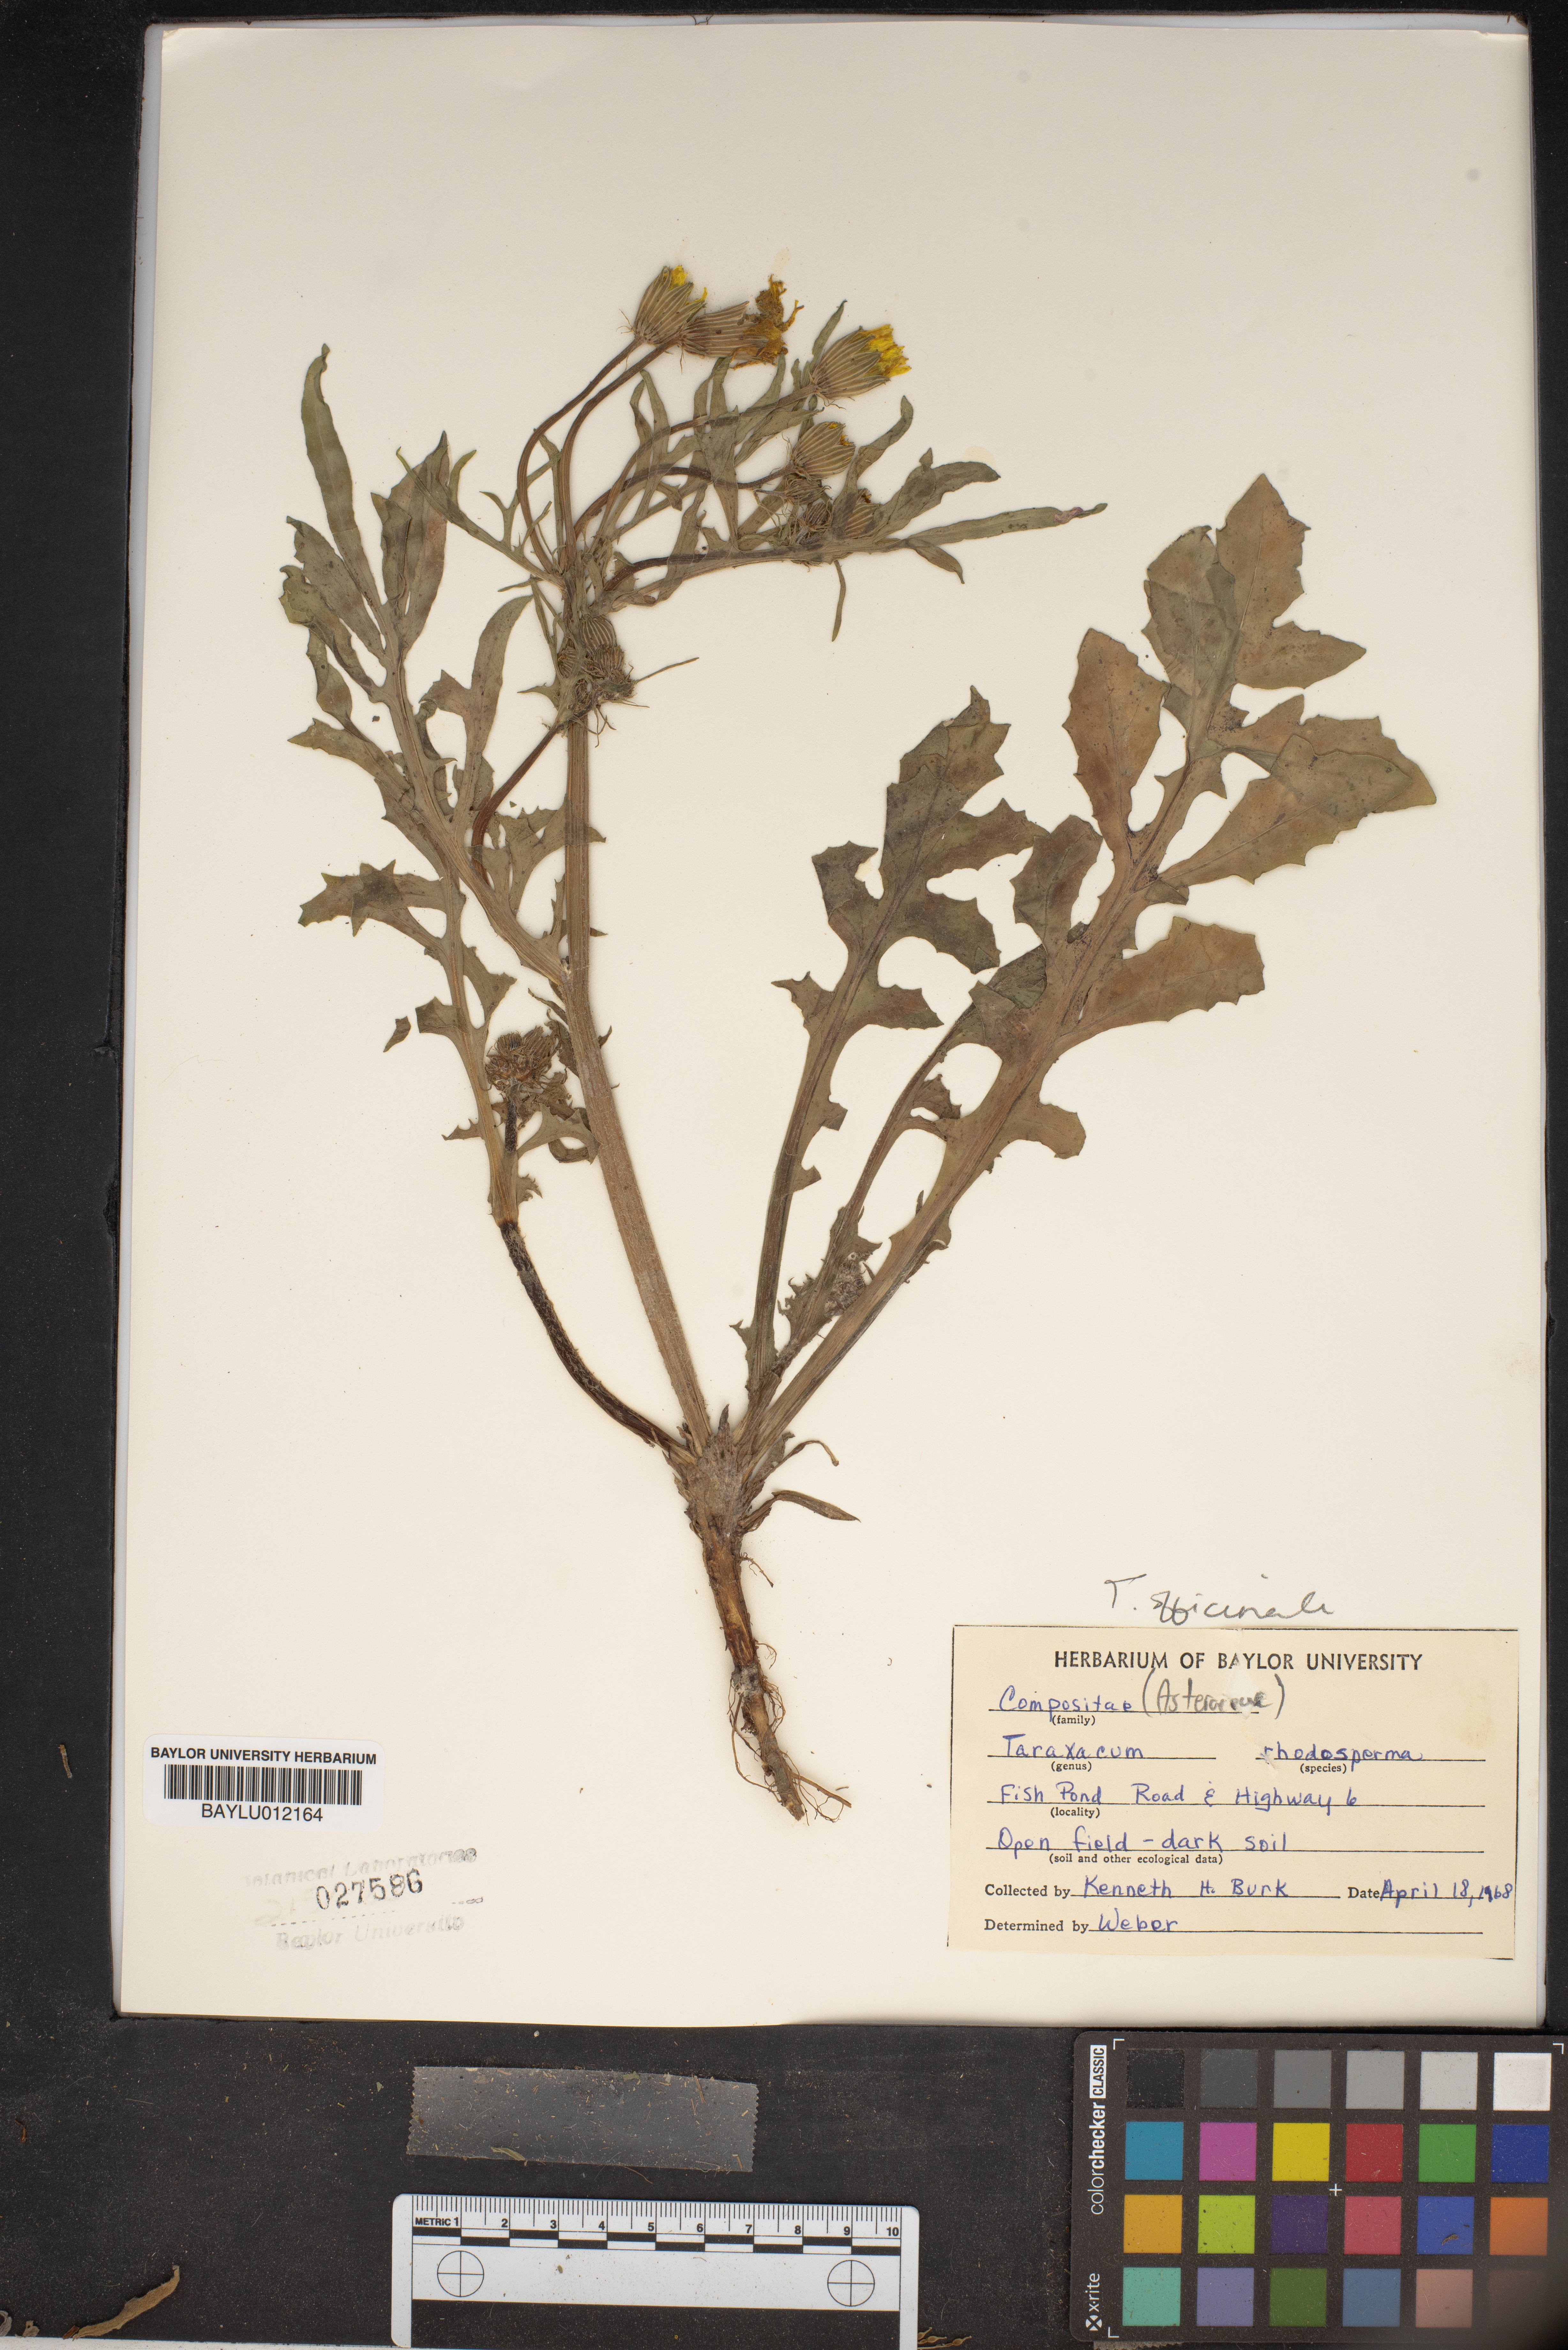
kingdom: Plantae
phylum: Tracheophyta
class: Magnoliopsida
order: Asterales
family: Asteraceae
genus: Taraxacum
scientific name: Taraxacum rhodolepis
